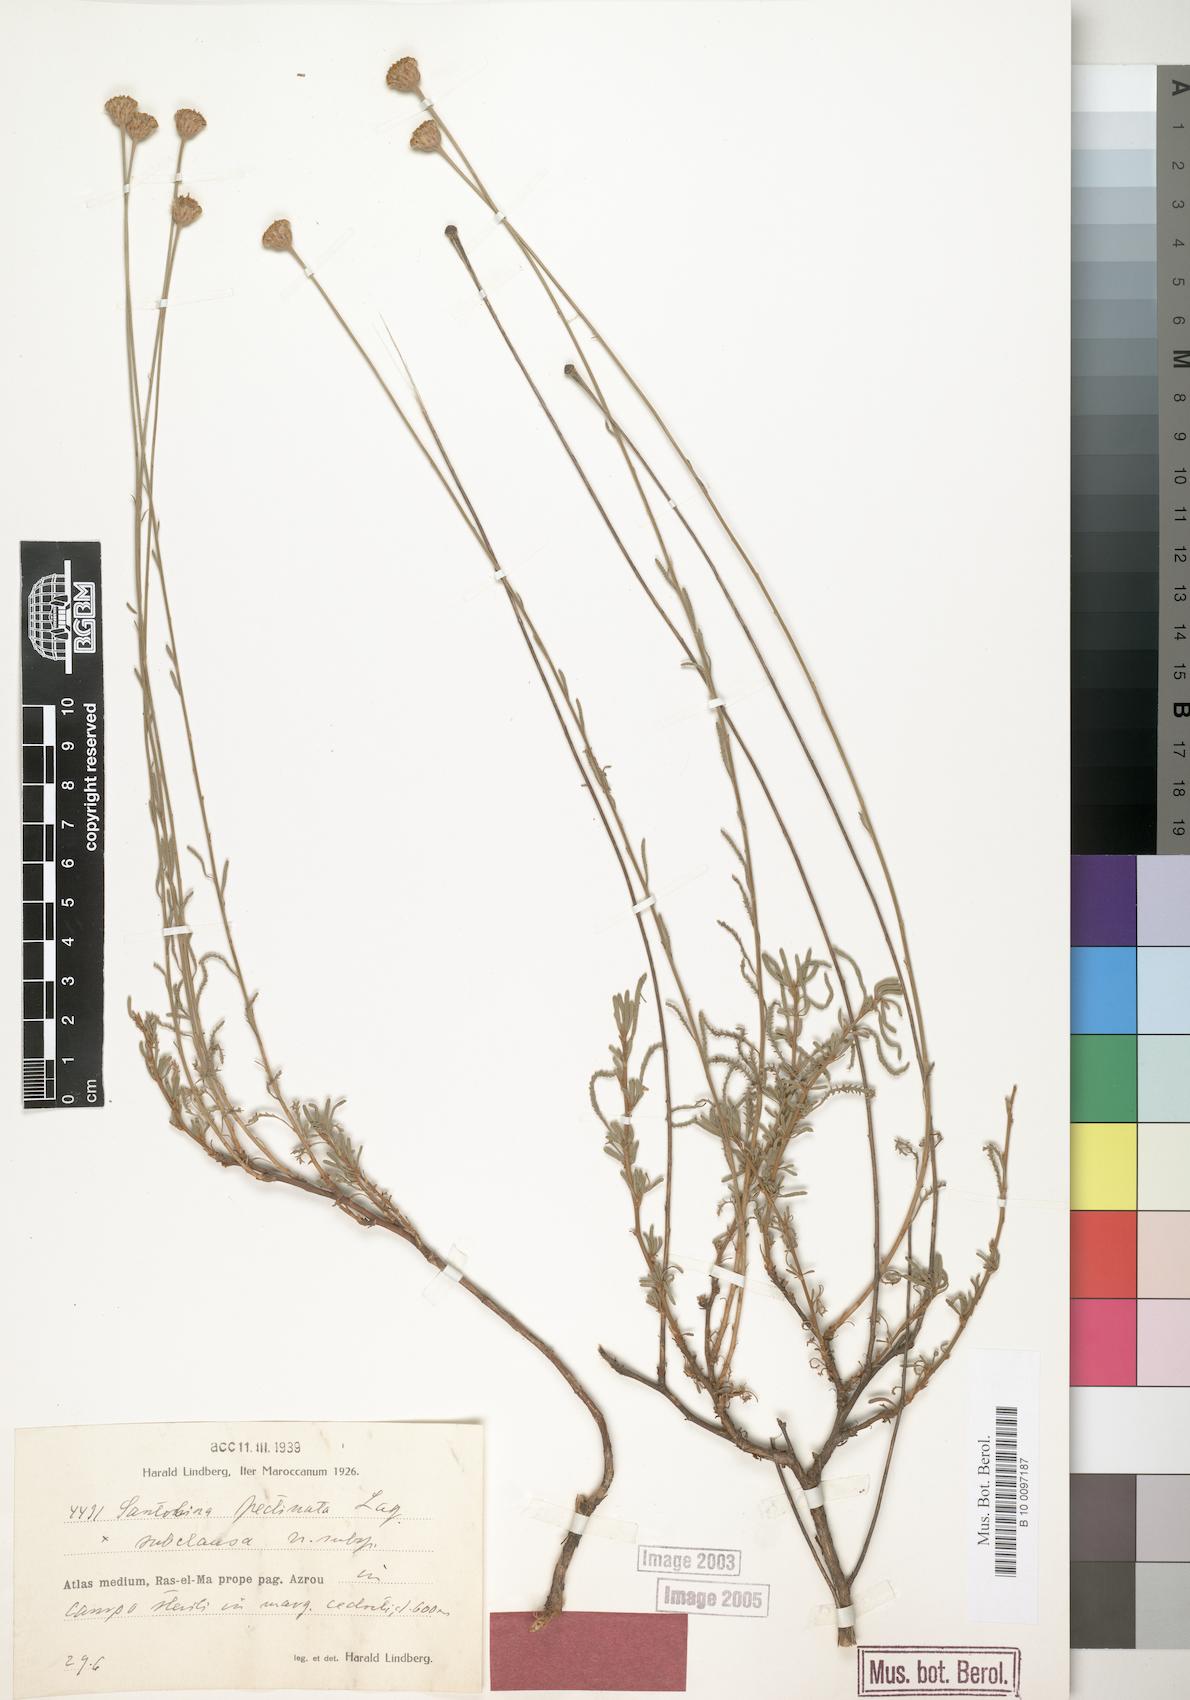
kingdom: Plantae
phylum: Tracheophyta
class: Magnoliopsida
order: Asterales
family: Asteraceae
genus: Santolina
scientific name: Santolina rosmarinifolia
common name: Holy-flax
